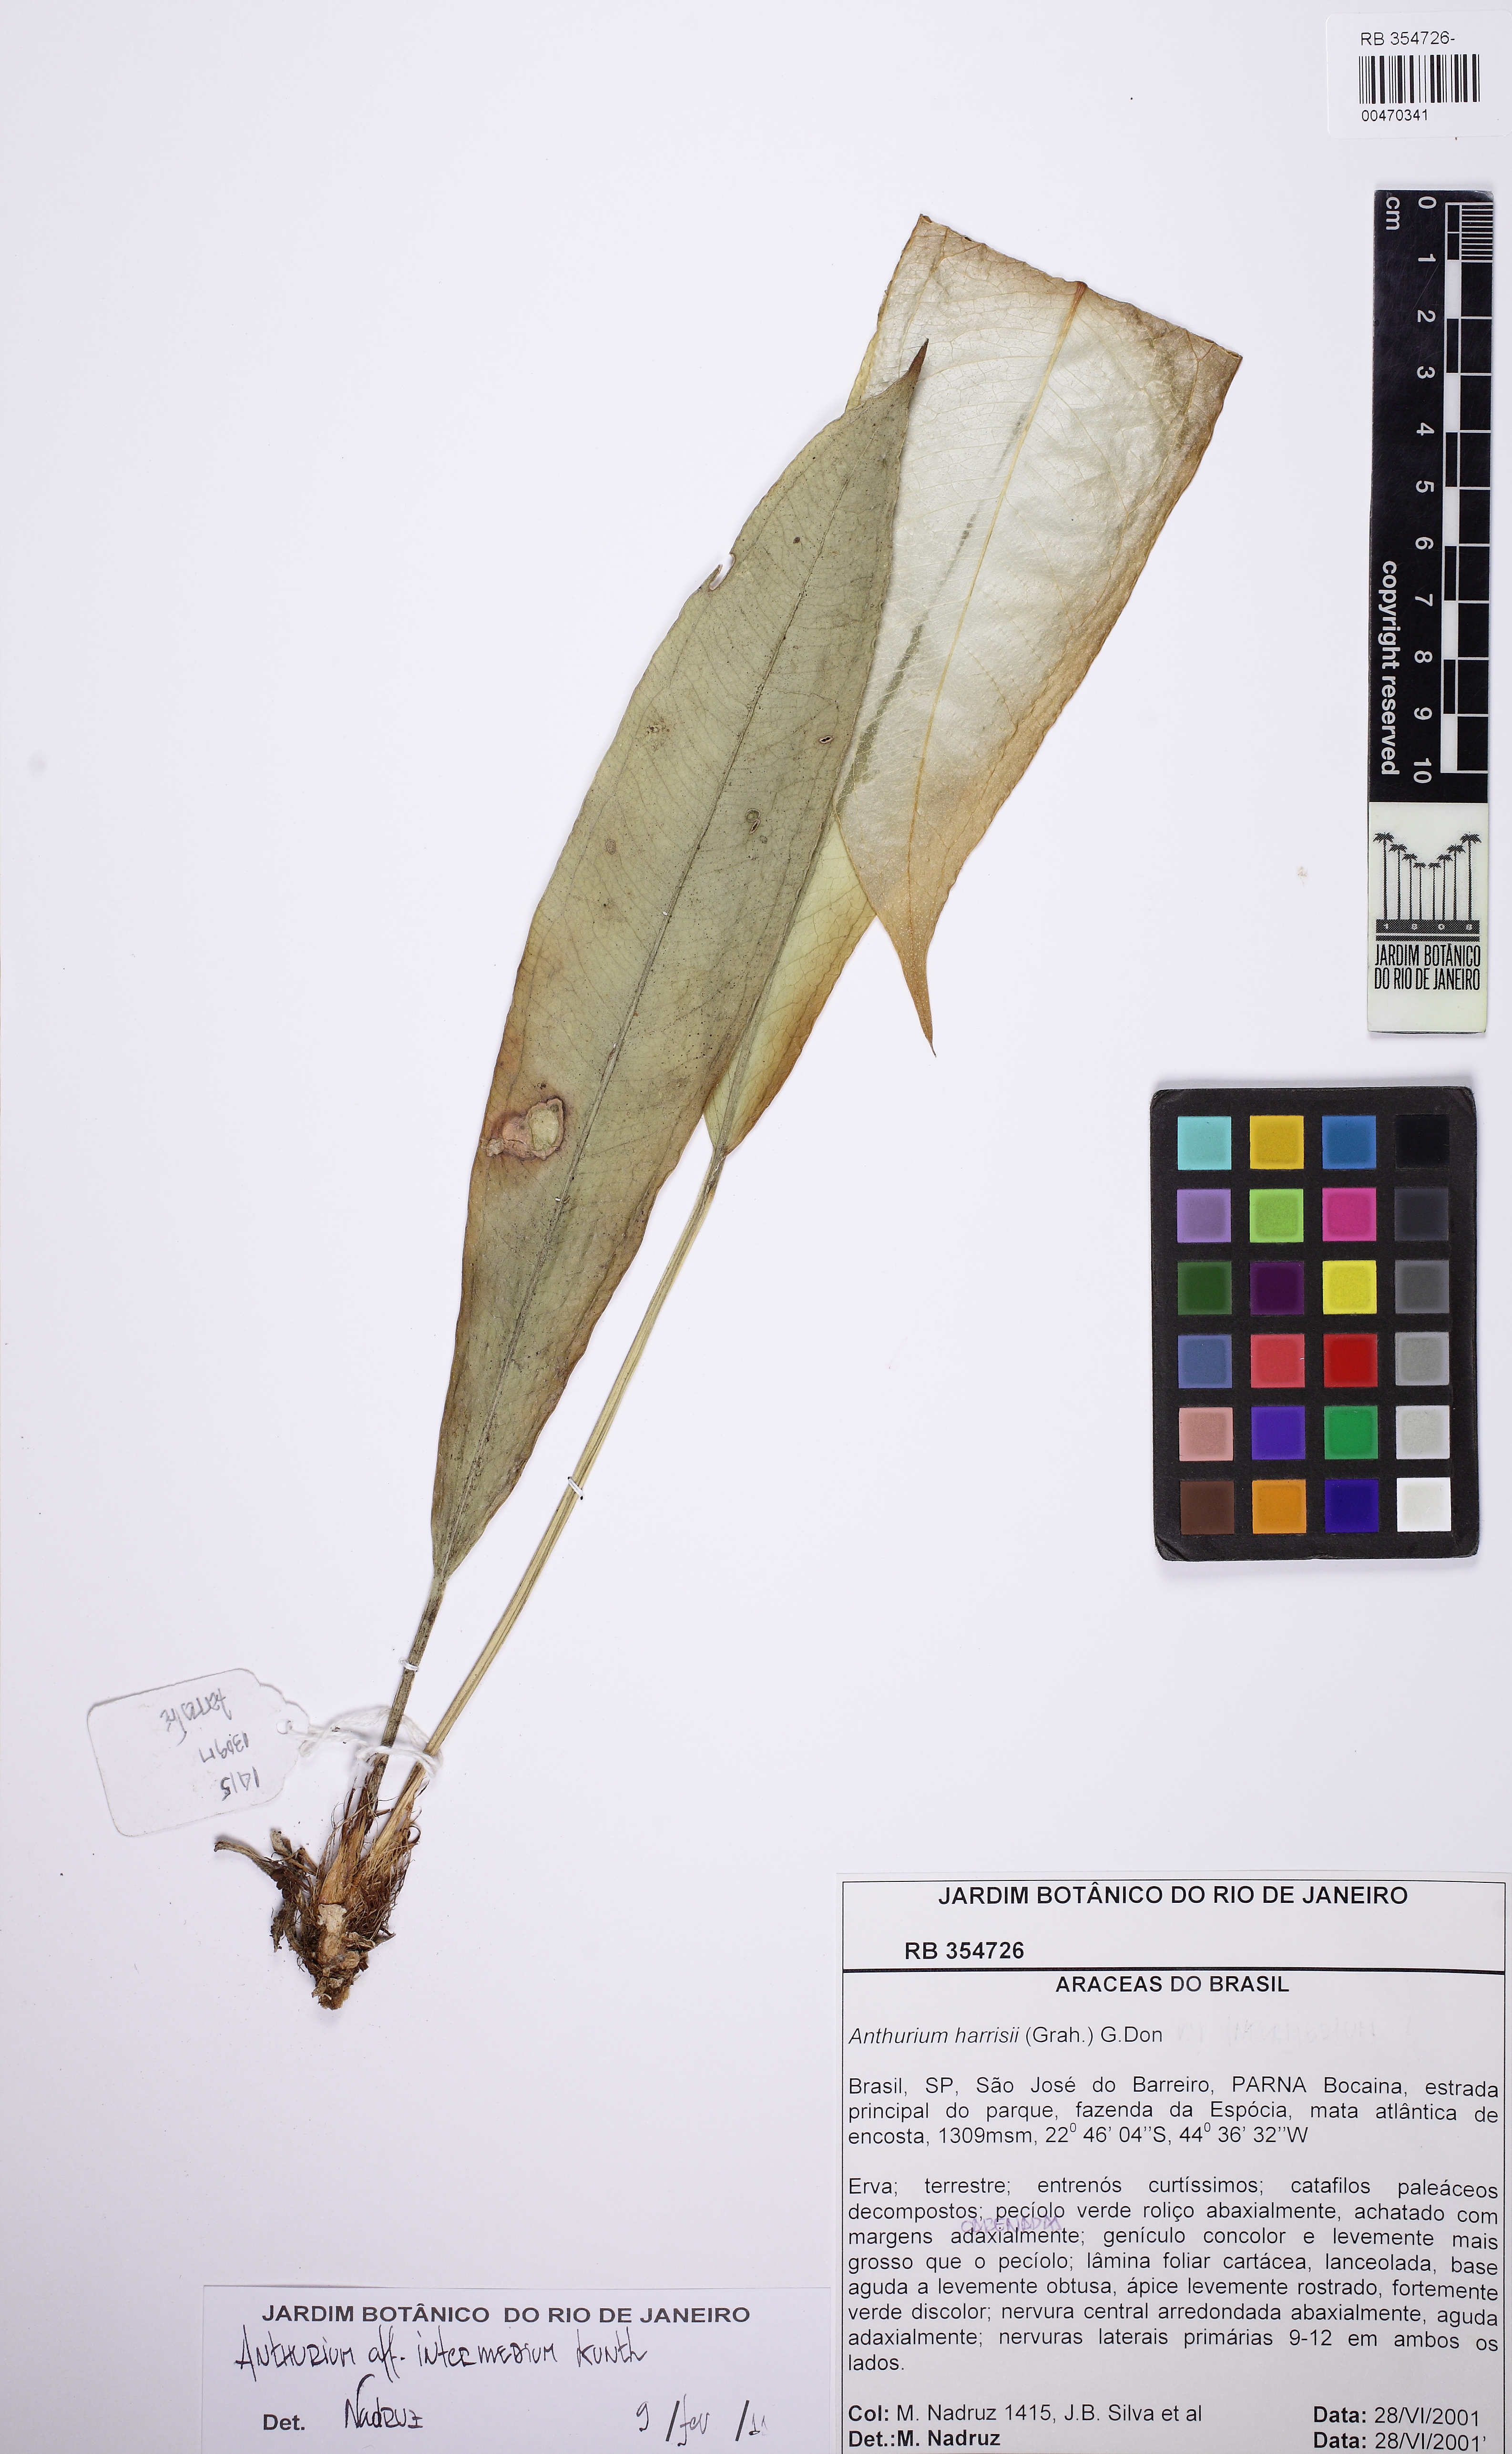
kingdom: Plantae
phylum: Tracheophyta
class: Liliopsida
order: Alismatales
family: Araceae
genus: Anthurium
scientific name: Anthurium intermedium
